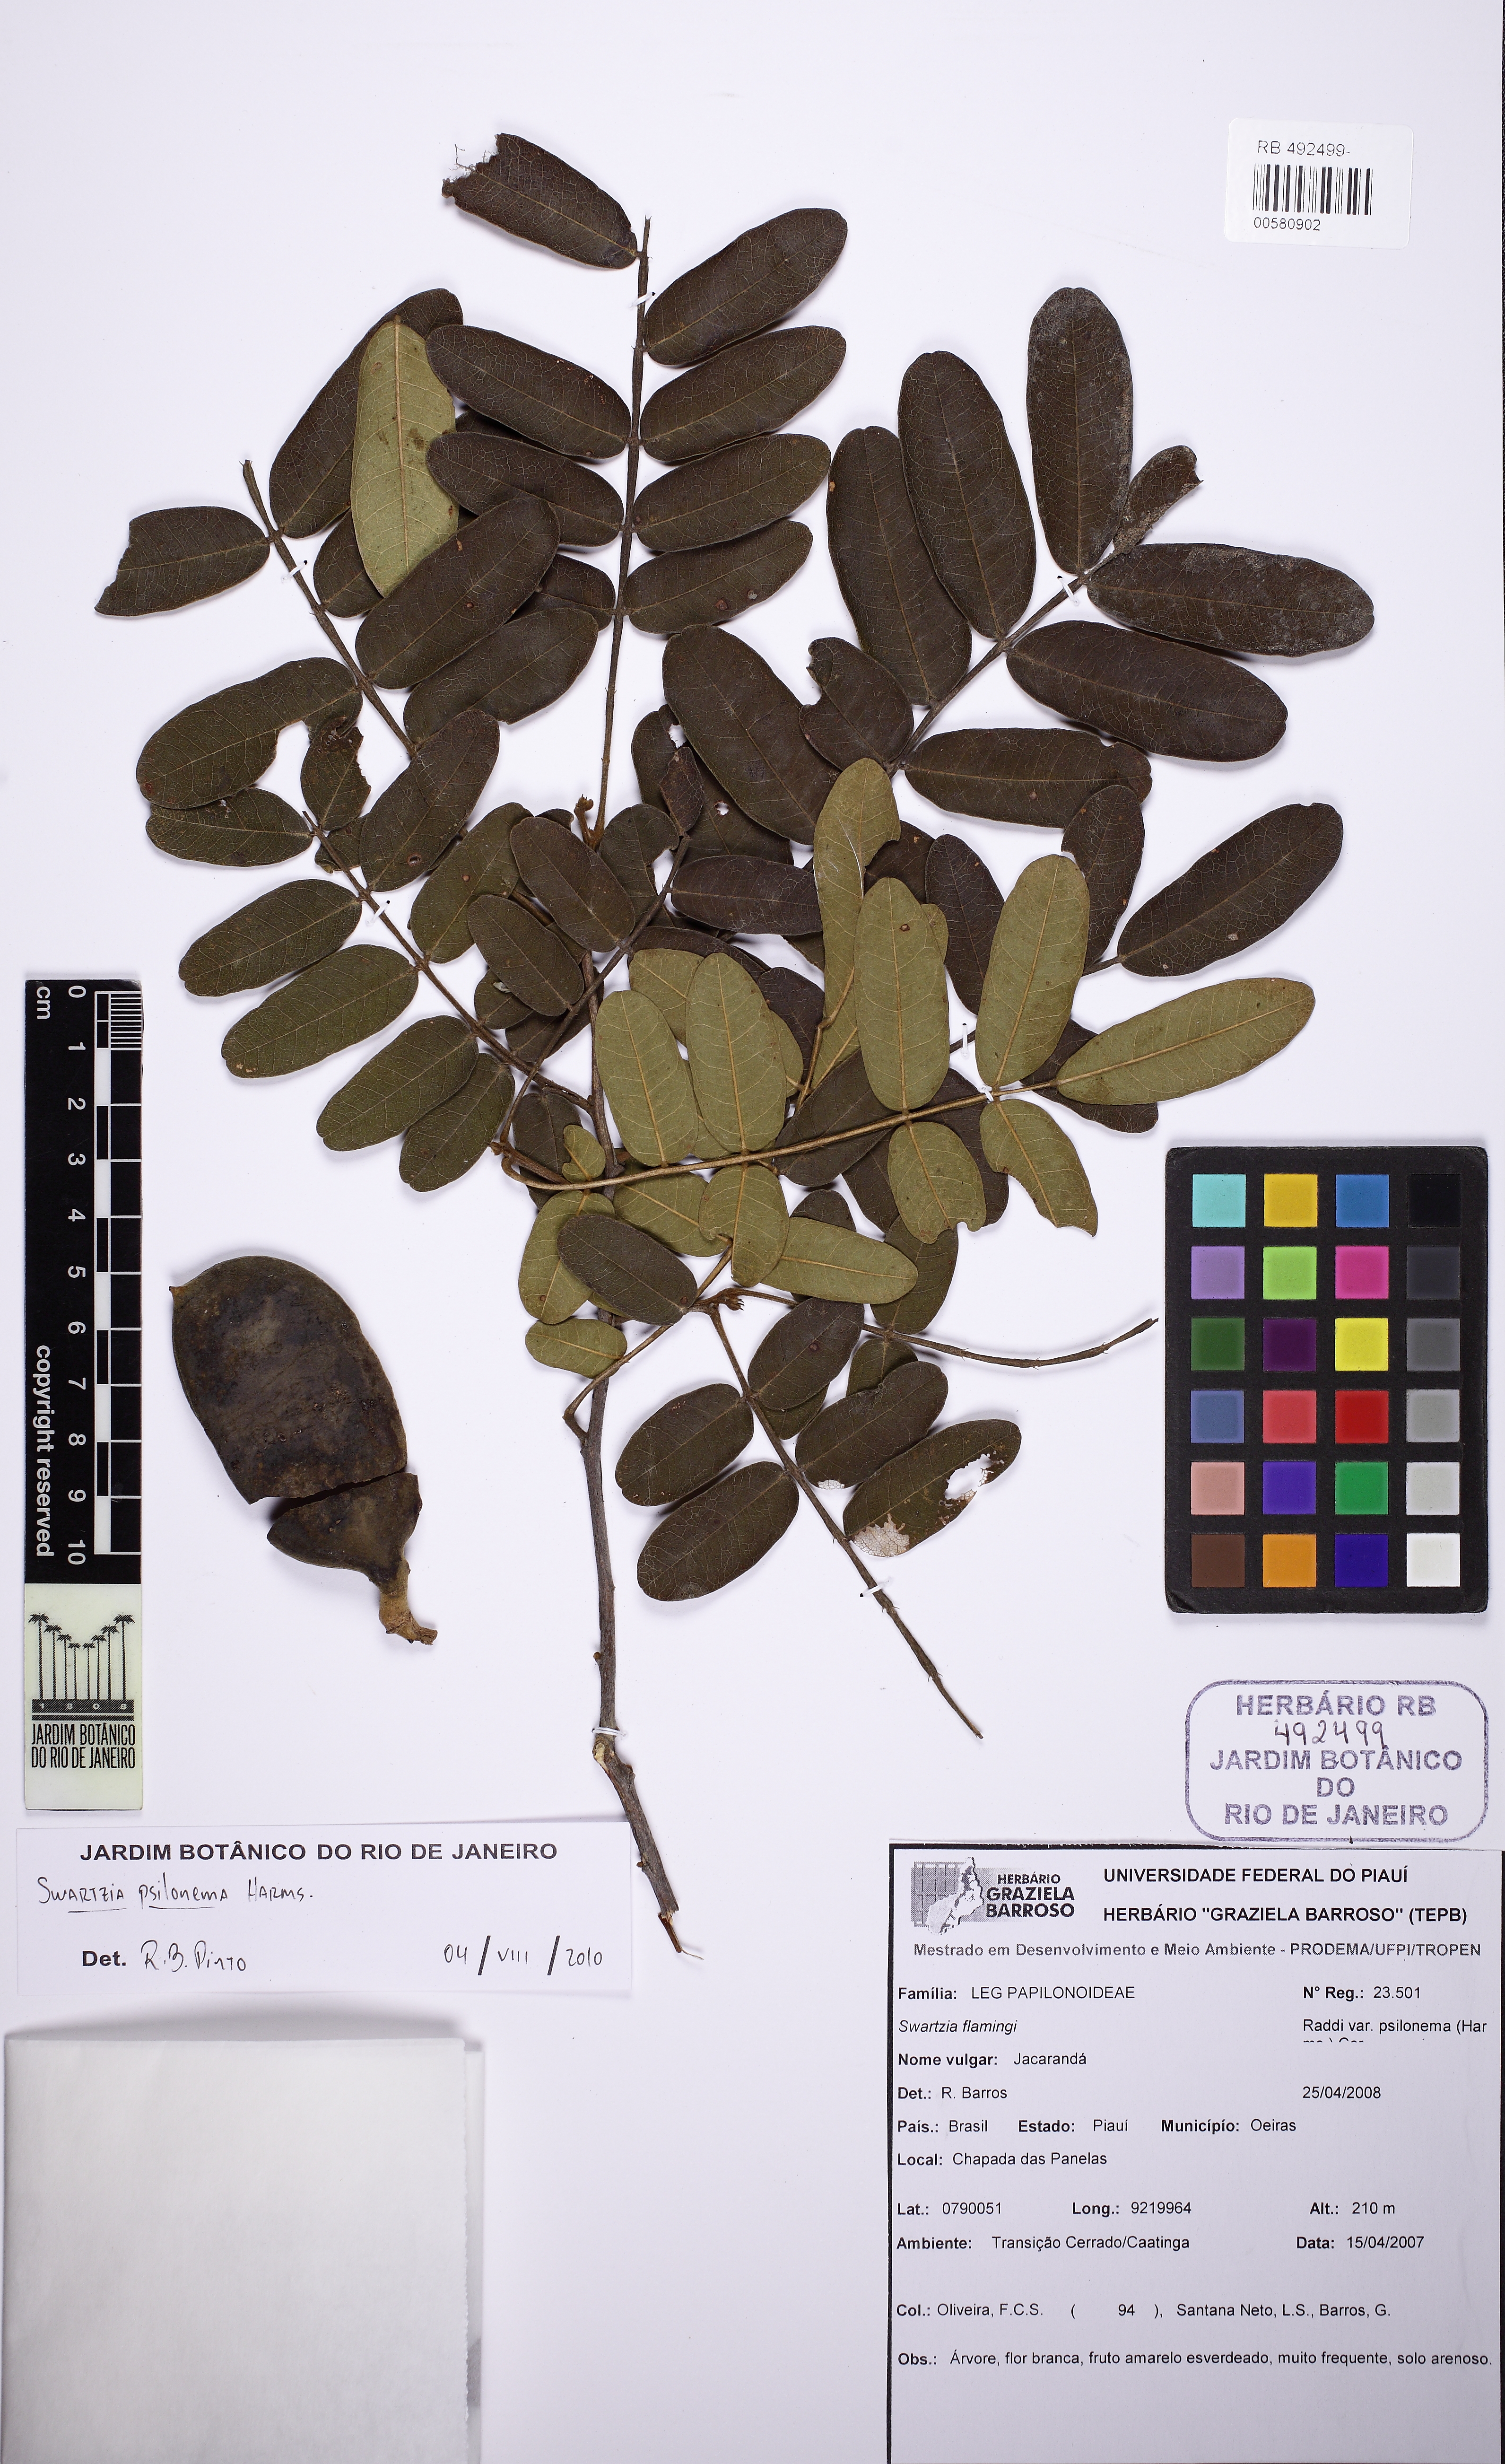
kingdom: Plantae
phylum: Tracheophyta
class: Magnoliopsida
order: Fabales
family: Fabaceae
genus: Swartzia
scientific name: Swartzia psilonema
